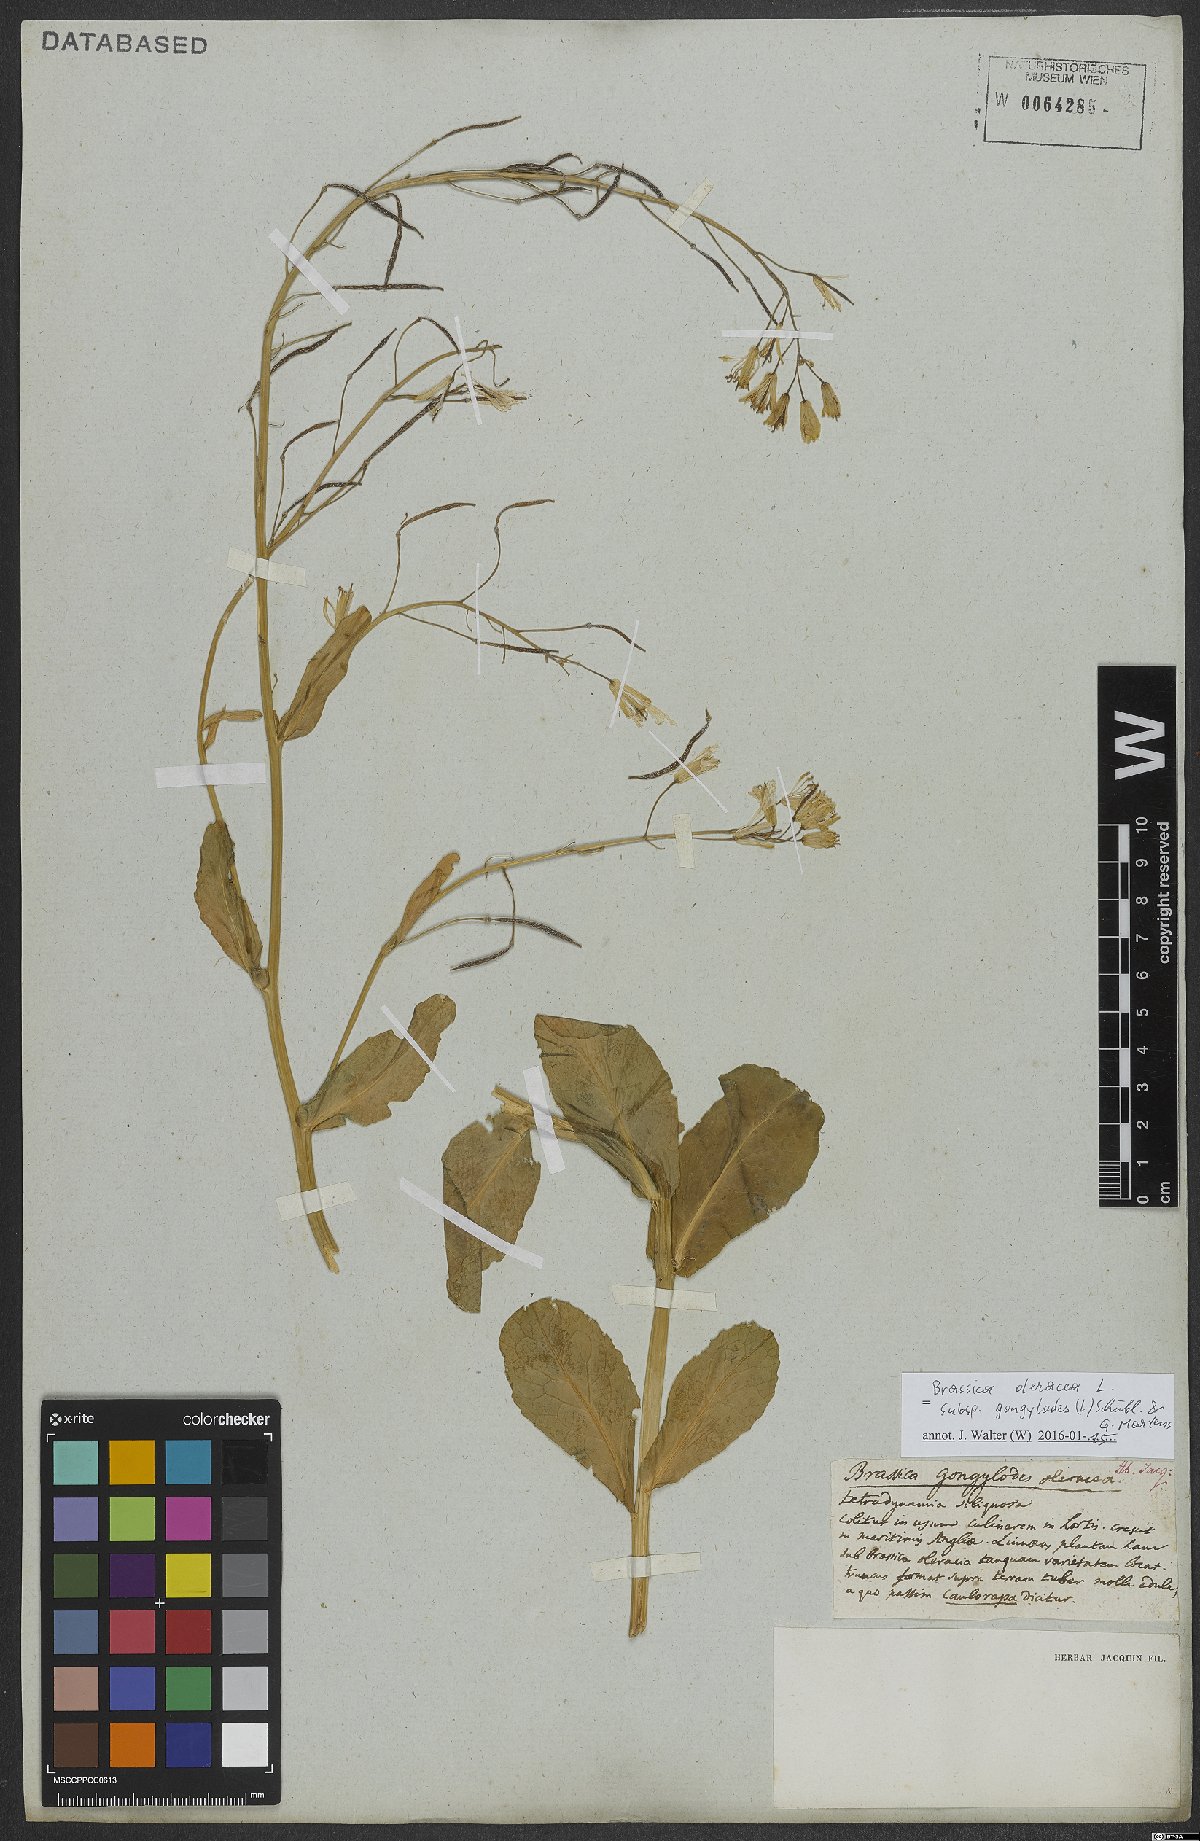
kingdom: Plantae
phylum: Tracheophyta
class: Magnoliopsida
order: Brassicales
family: Brassicaceae
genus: Brassica
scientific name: Brassica oleracea
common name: Cabbage
